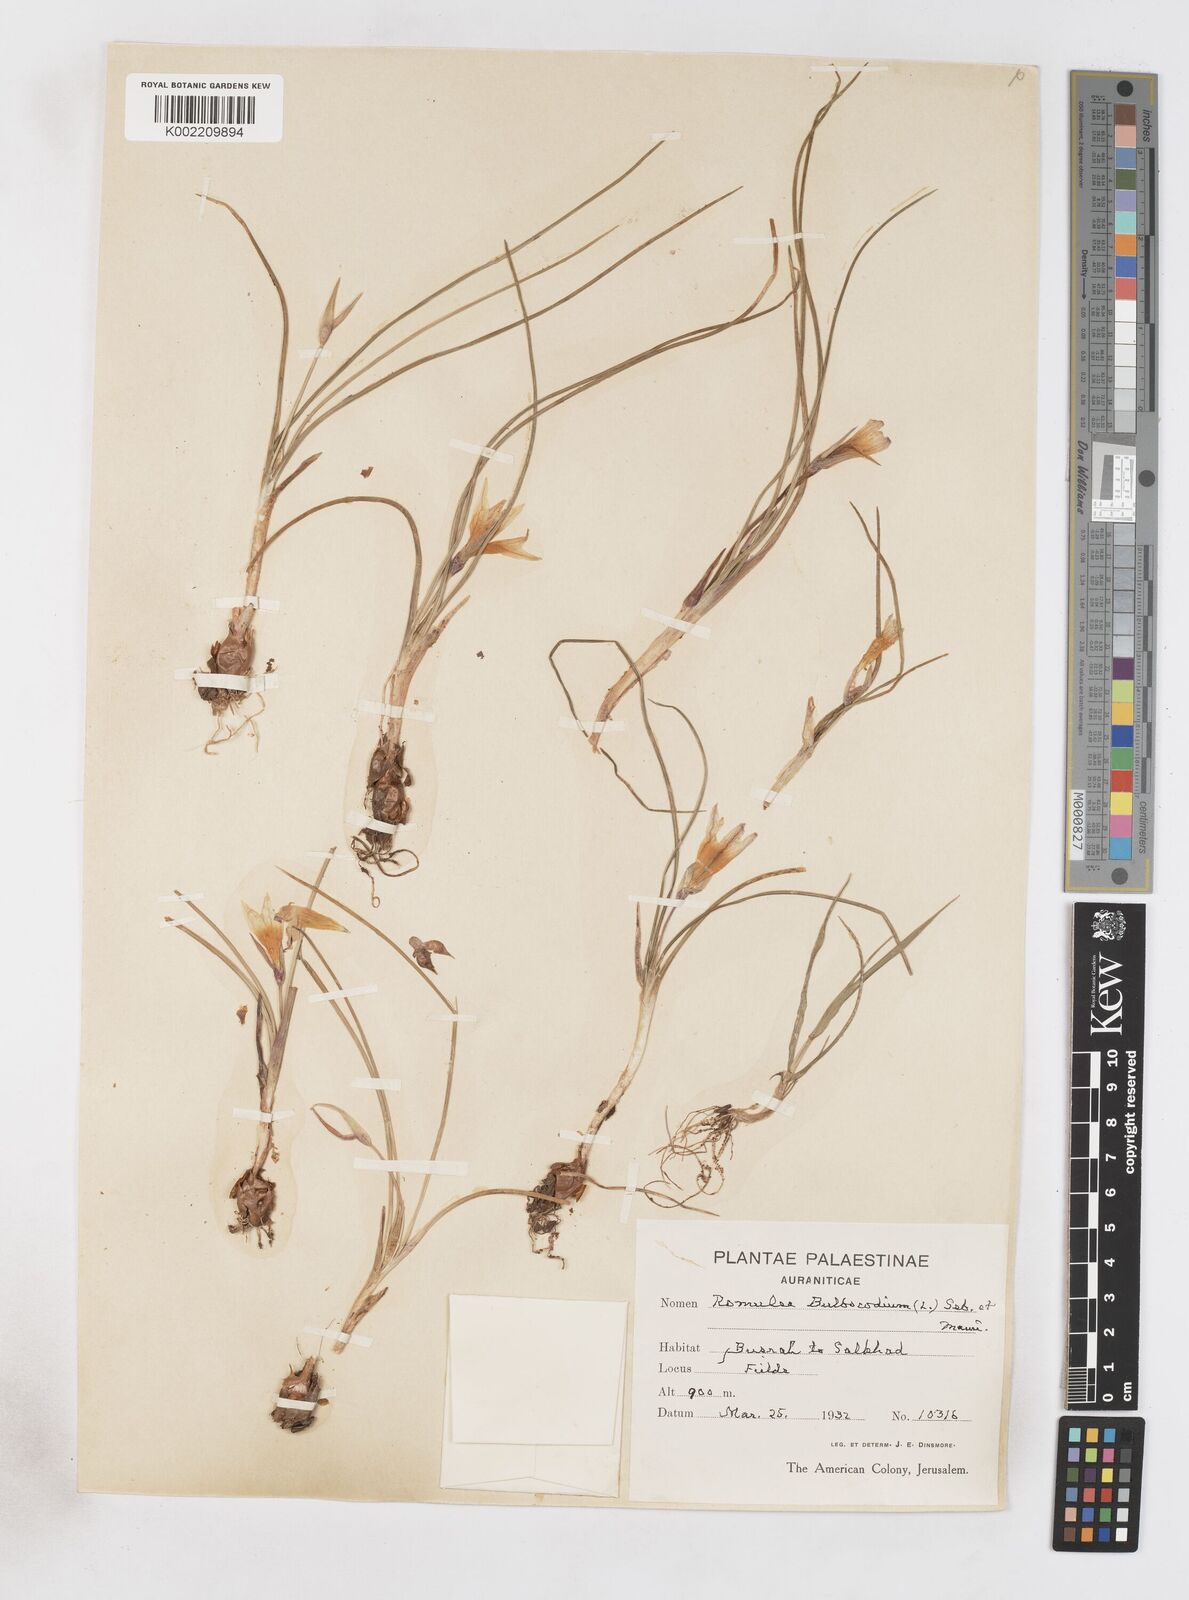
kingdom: Plantae
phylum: Tracheophyta
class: Liliopsida
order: Asparagales
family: Iridaceae
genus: Romulea
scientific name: Romulea bulbocodium
